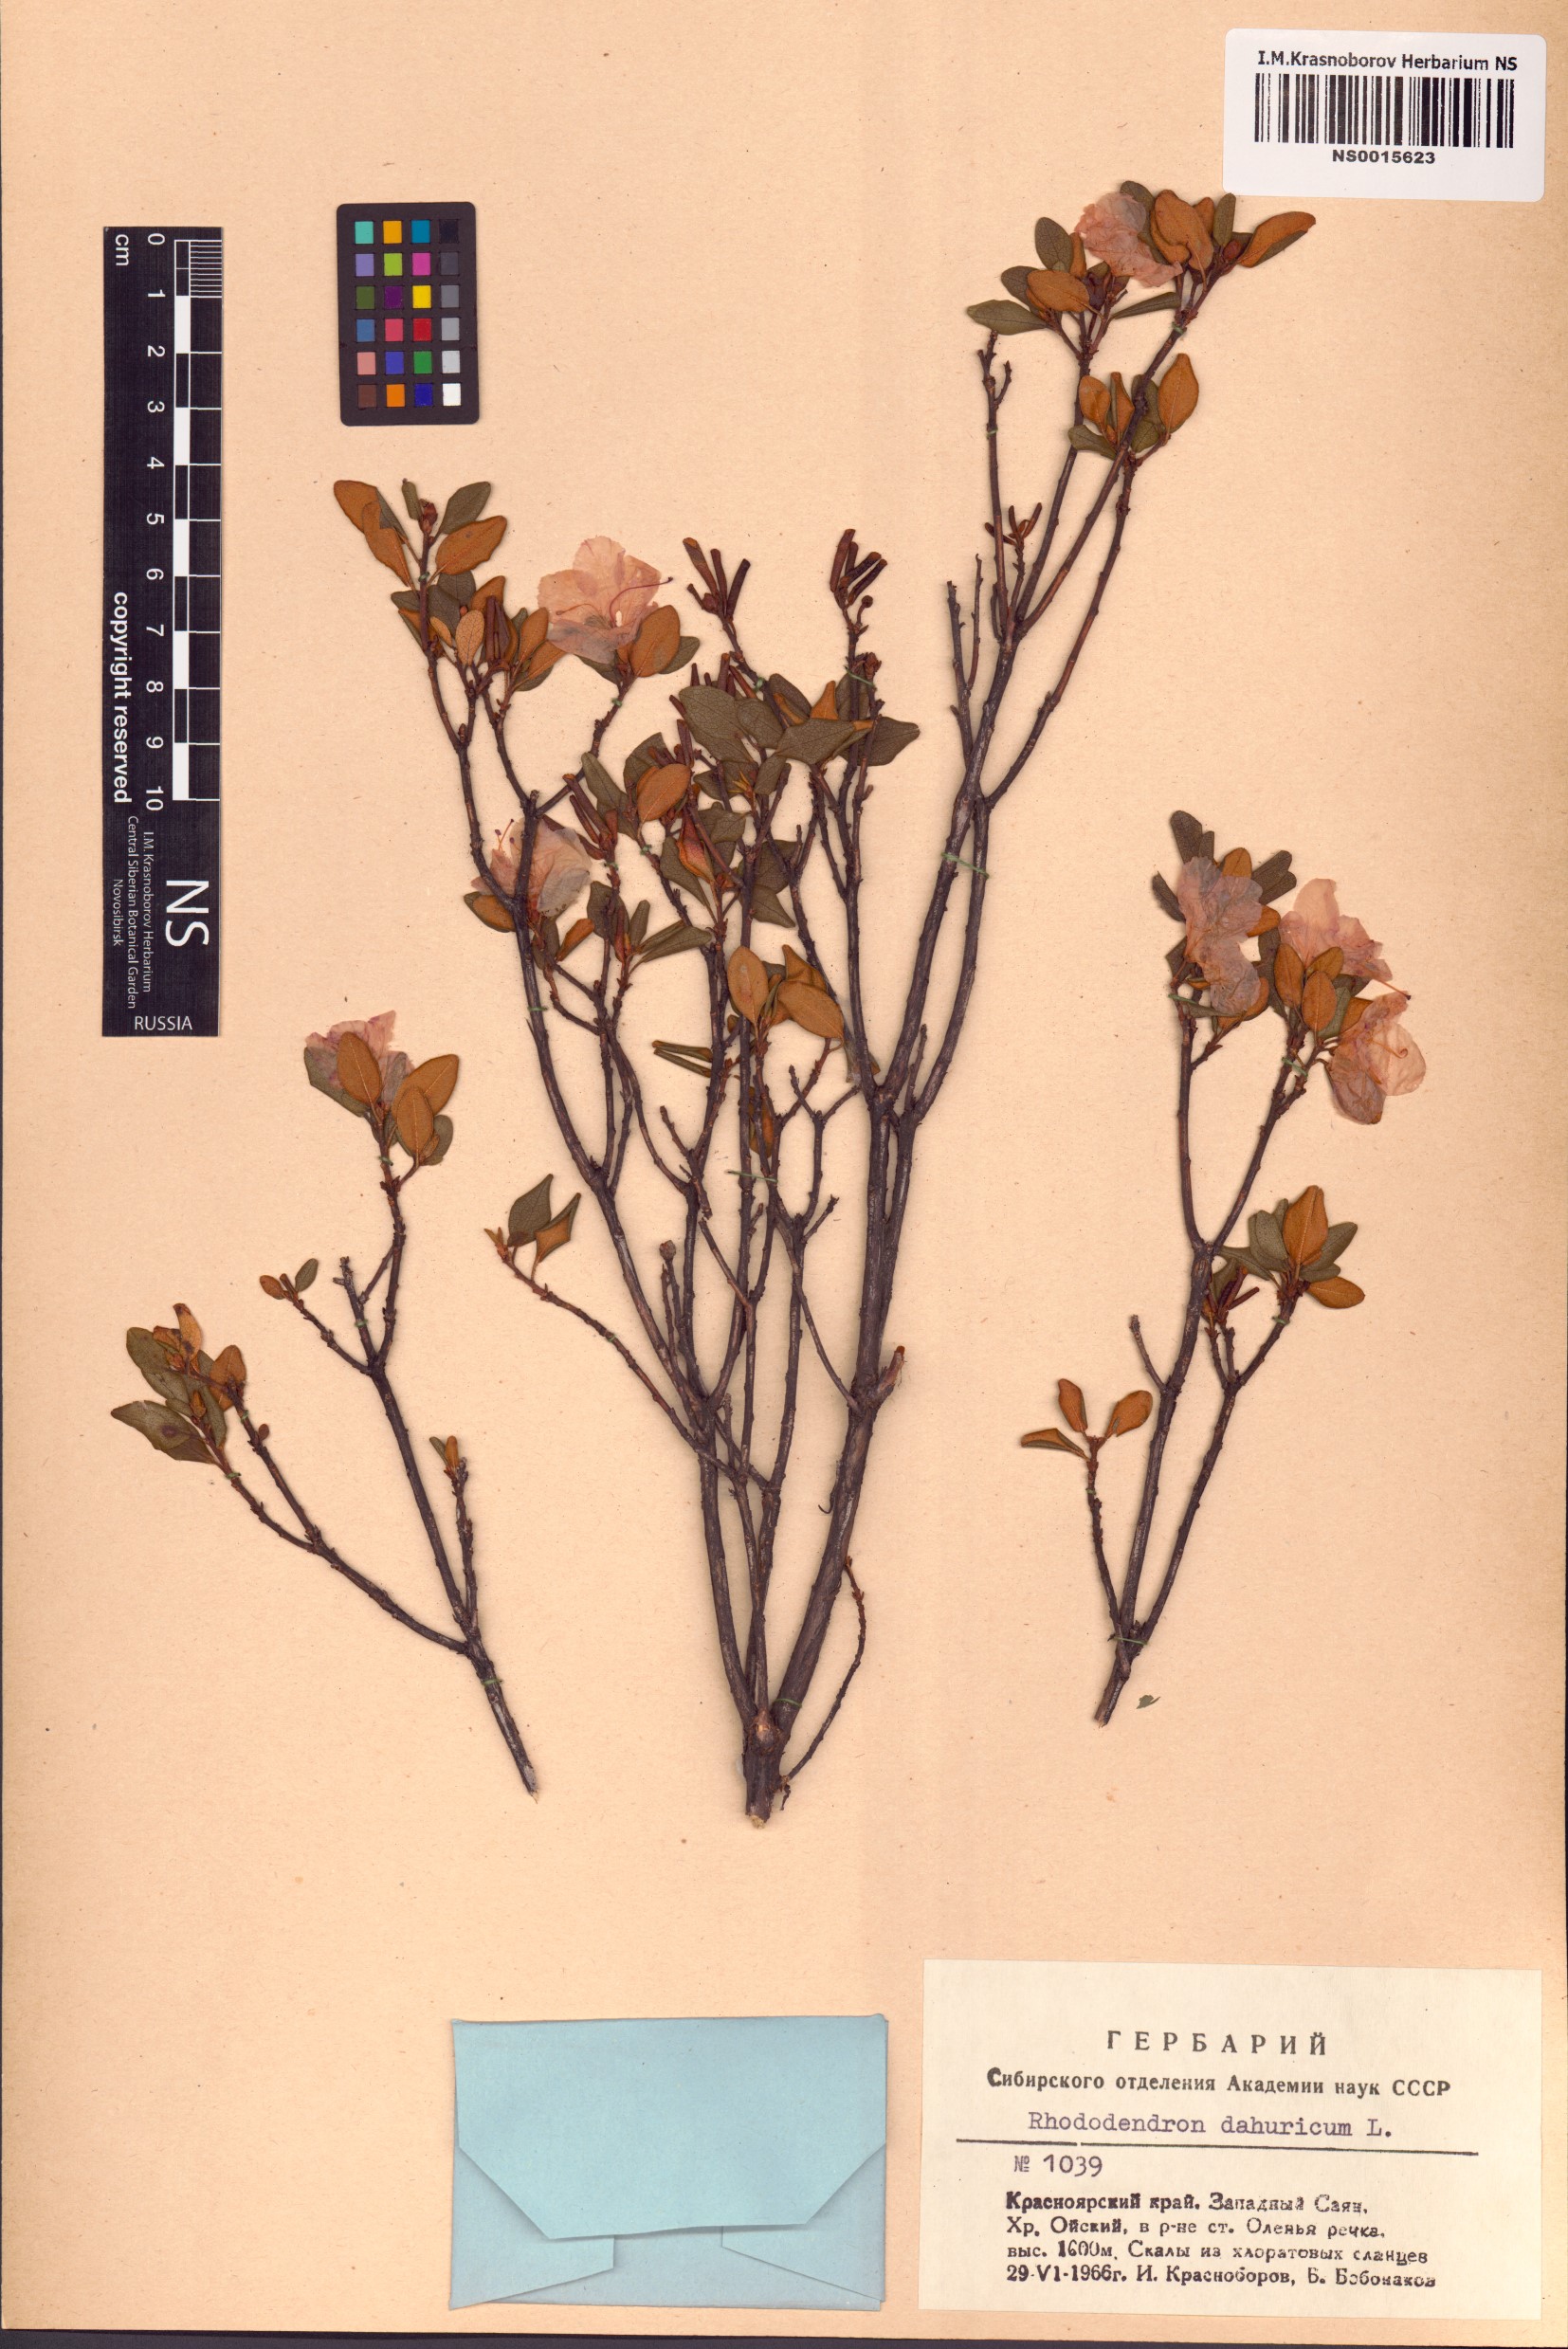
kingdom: Plantae
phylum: Tracheophyta
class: Magnoliopsida
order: Ericales
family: Ericaceae
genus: Rhododendron
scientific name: Rhododendron dauricum
